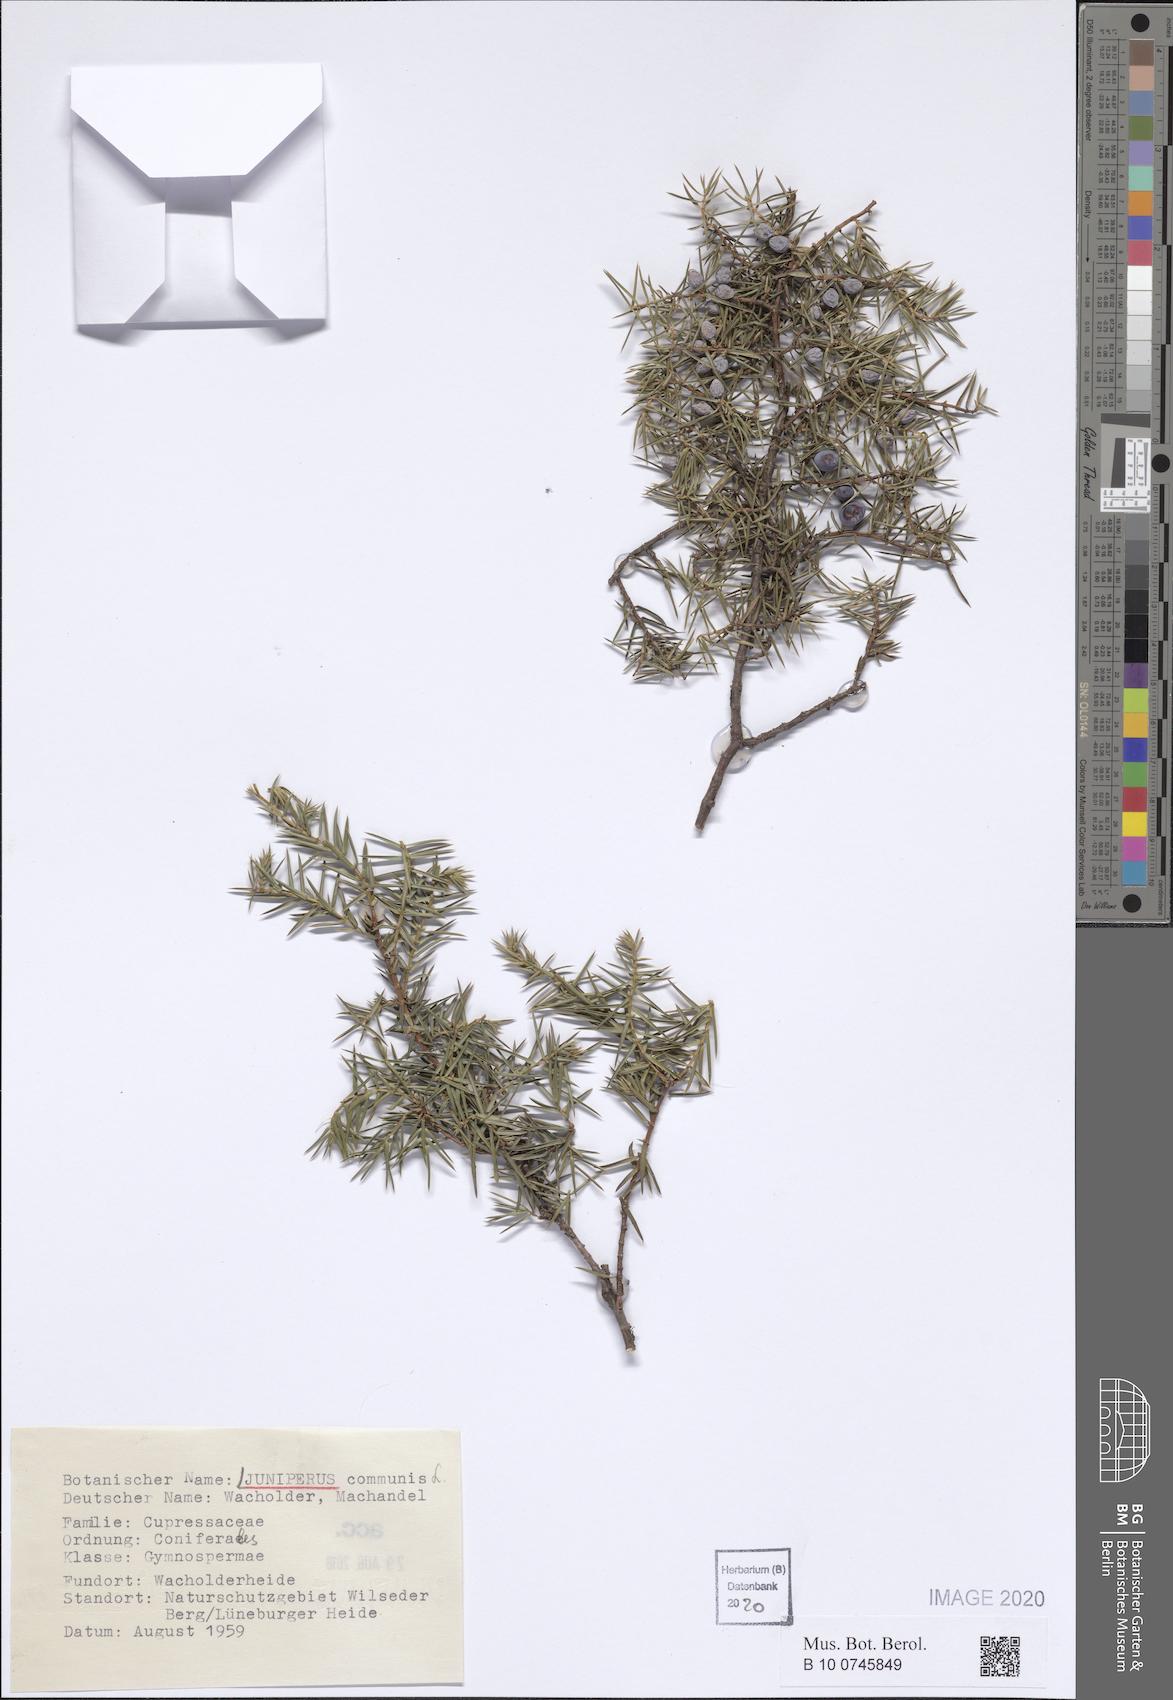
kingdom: Plantae
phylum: Tracheophyta
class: Pinopsida
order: Pinales
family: Cupressaceae
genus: Juniperus
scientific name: Juniperus communis
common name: Common juniper
